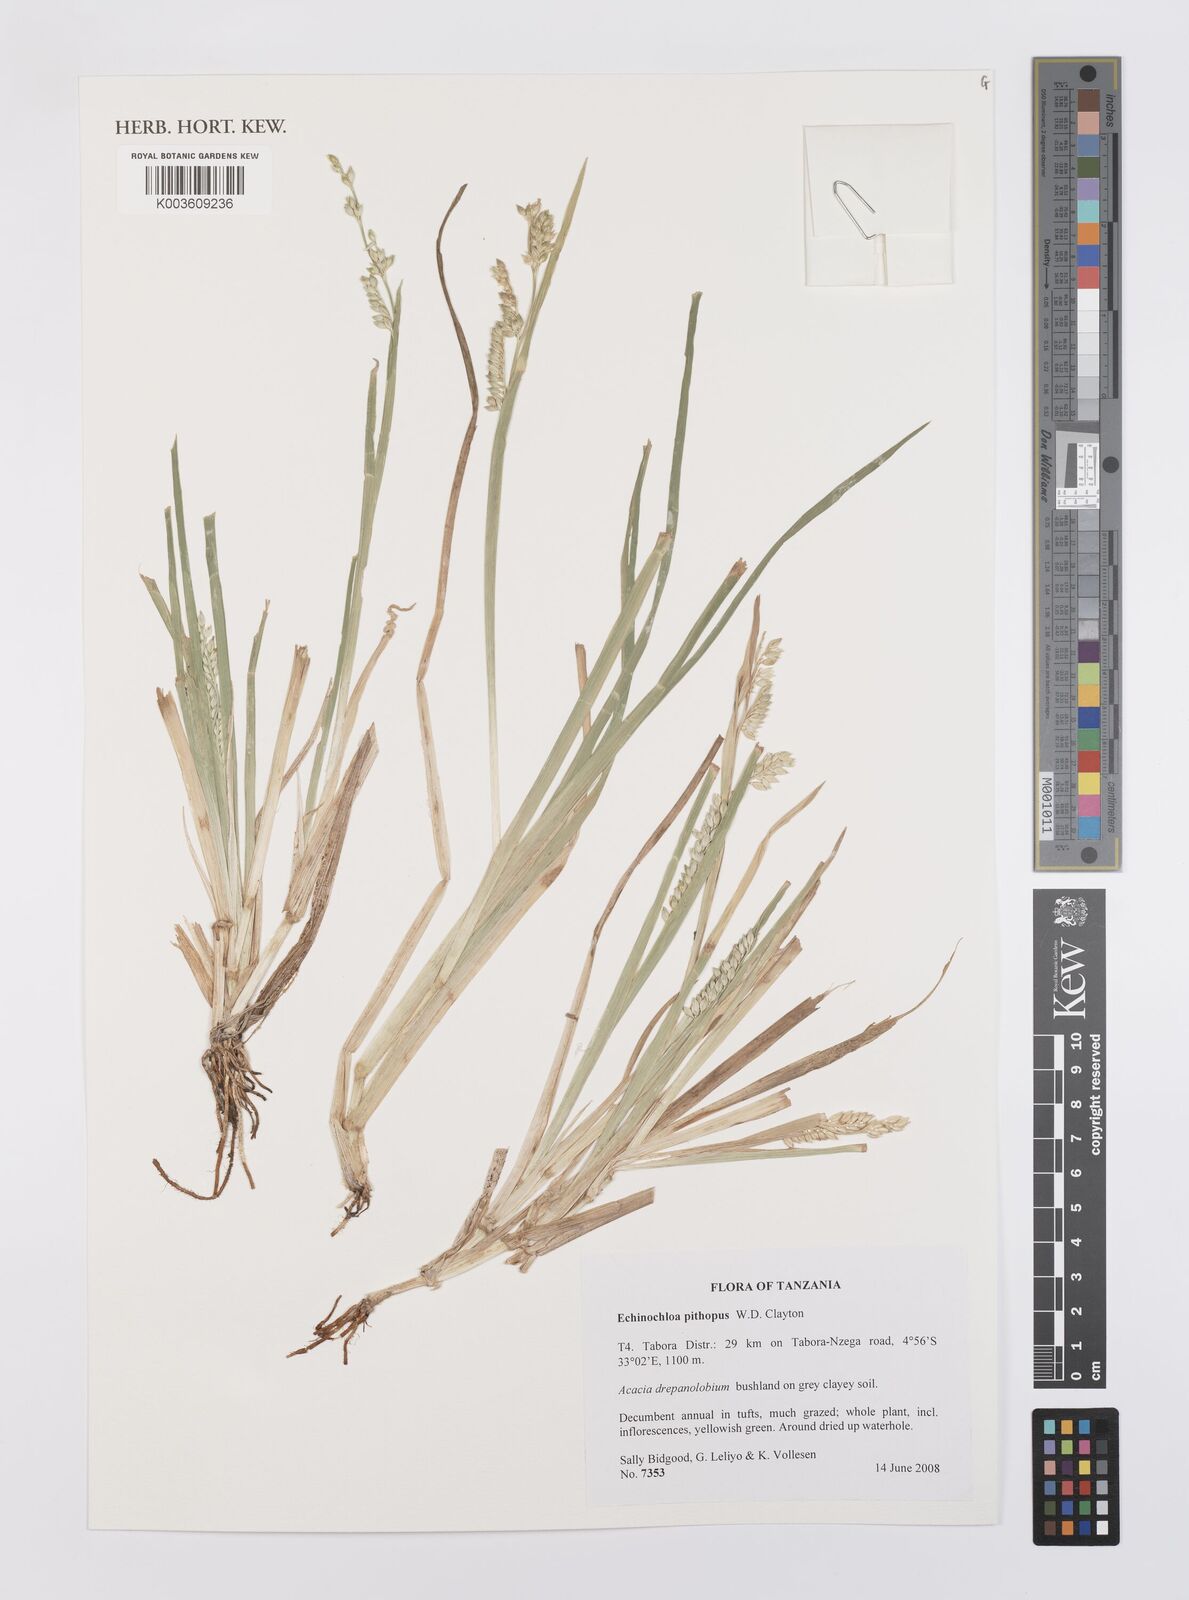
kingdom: Plantae
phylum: Tracheophyta
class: Liliopsida
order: Poales
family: Poaceae
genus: Echinochloa
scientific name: Echinochloa pithopus
